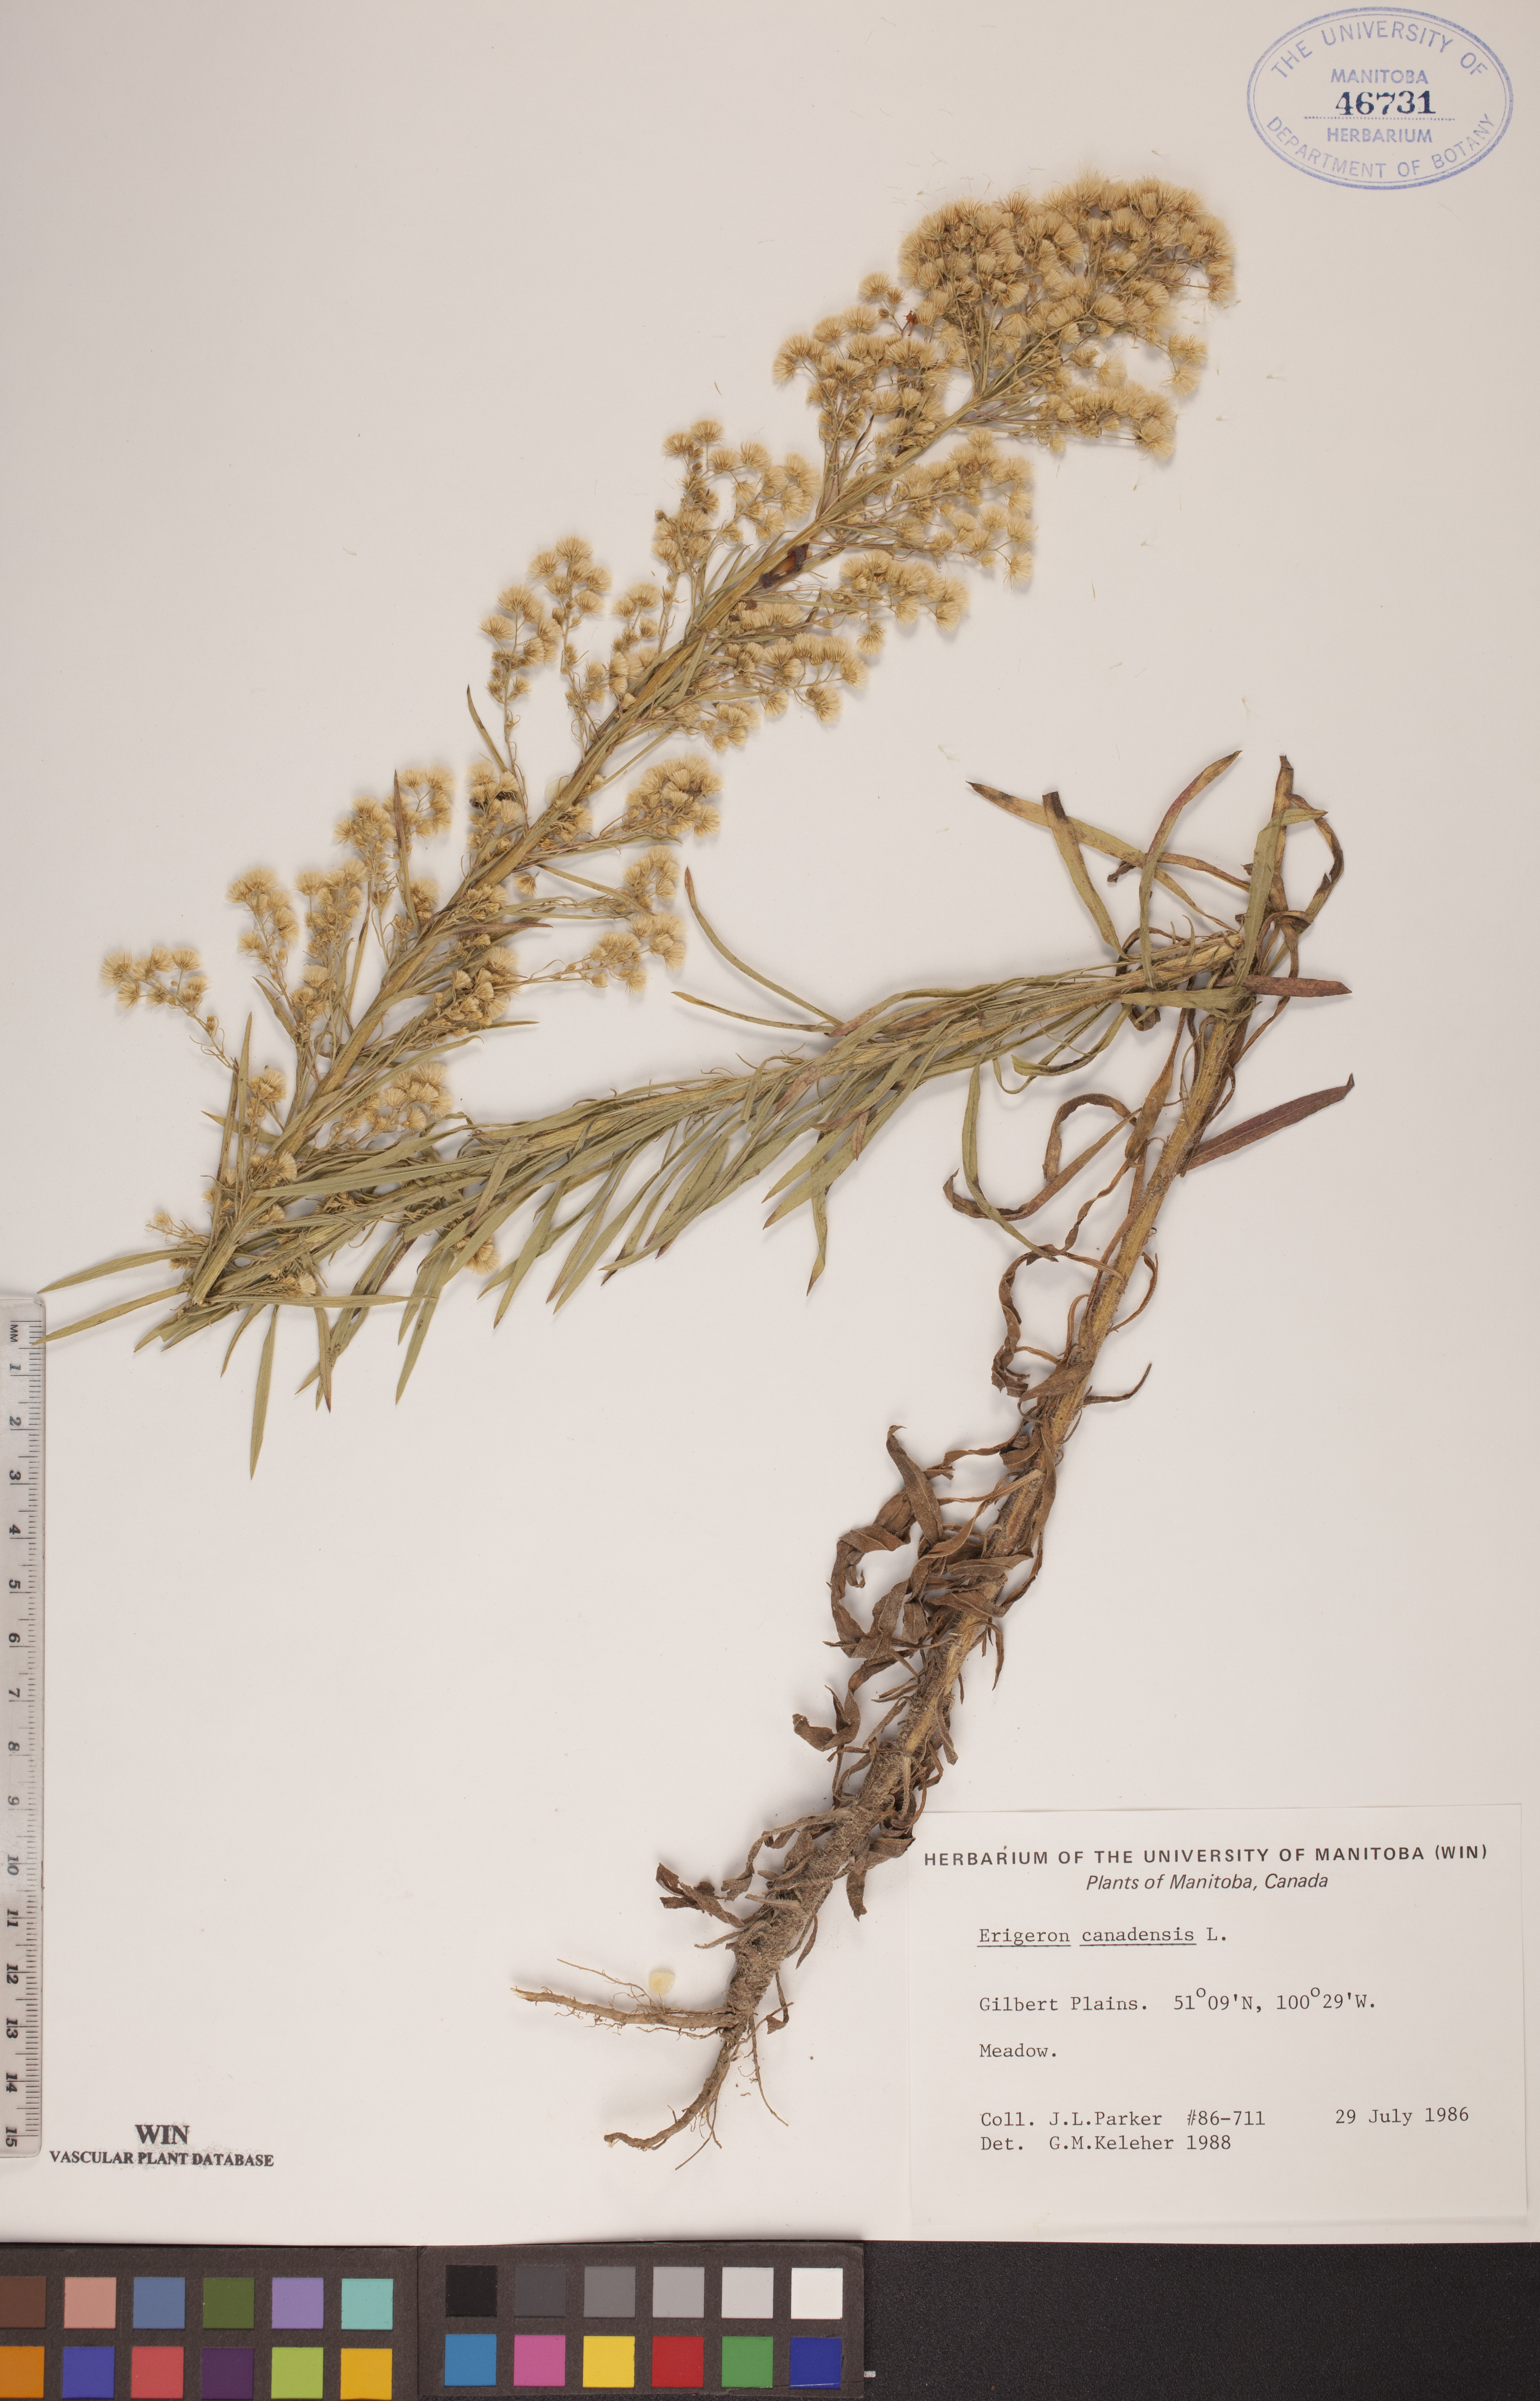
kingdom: Plantae
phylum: Tracheophyta
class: Magnoliopsida
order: Asterales
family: Asteraceae
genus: Erigeron
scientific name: Erigeron canadensis
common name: Canadian fleabane
